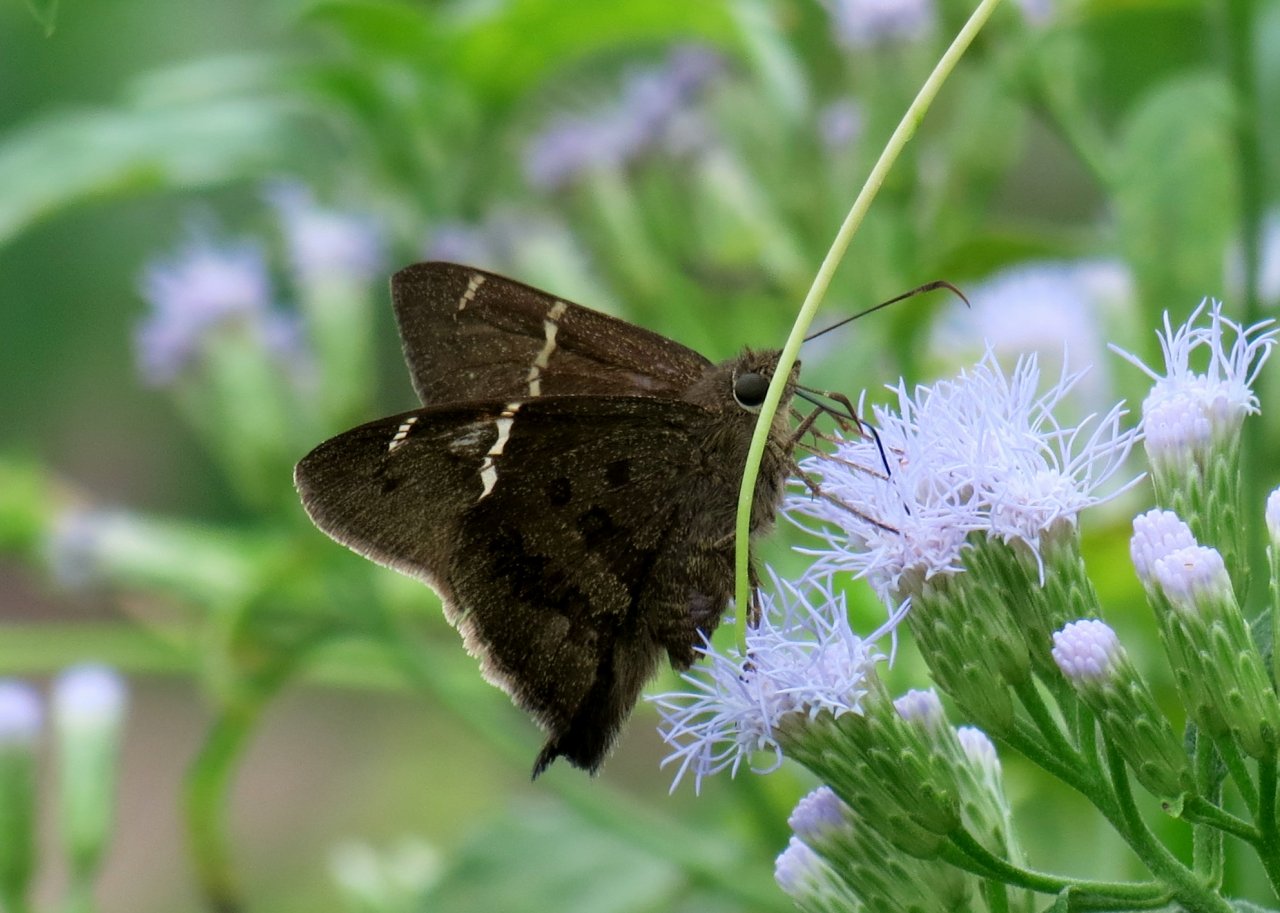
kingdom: Animalia
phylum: Arthropoda
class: Insecta
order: Lepidoptera
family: Hesperiidae
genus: Urbanus
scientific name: Urbanus procne
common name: Brown Longtail
